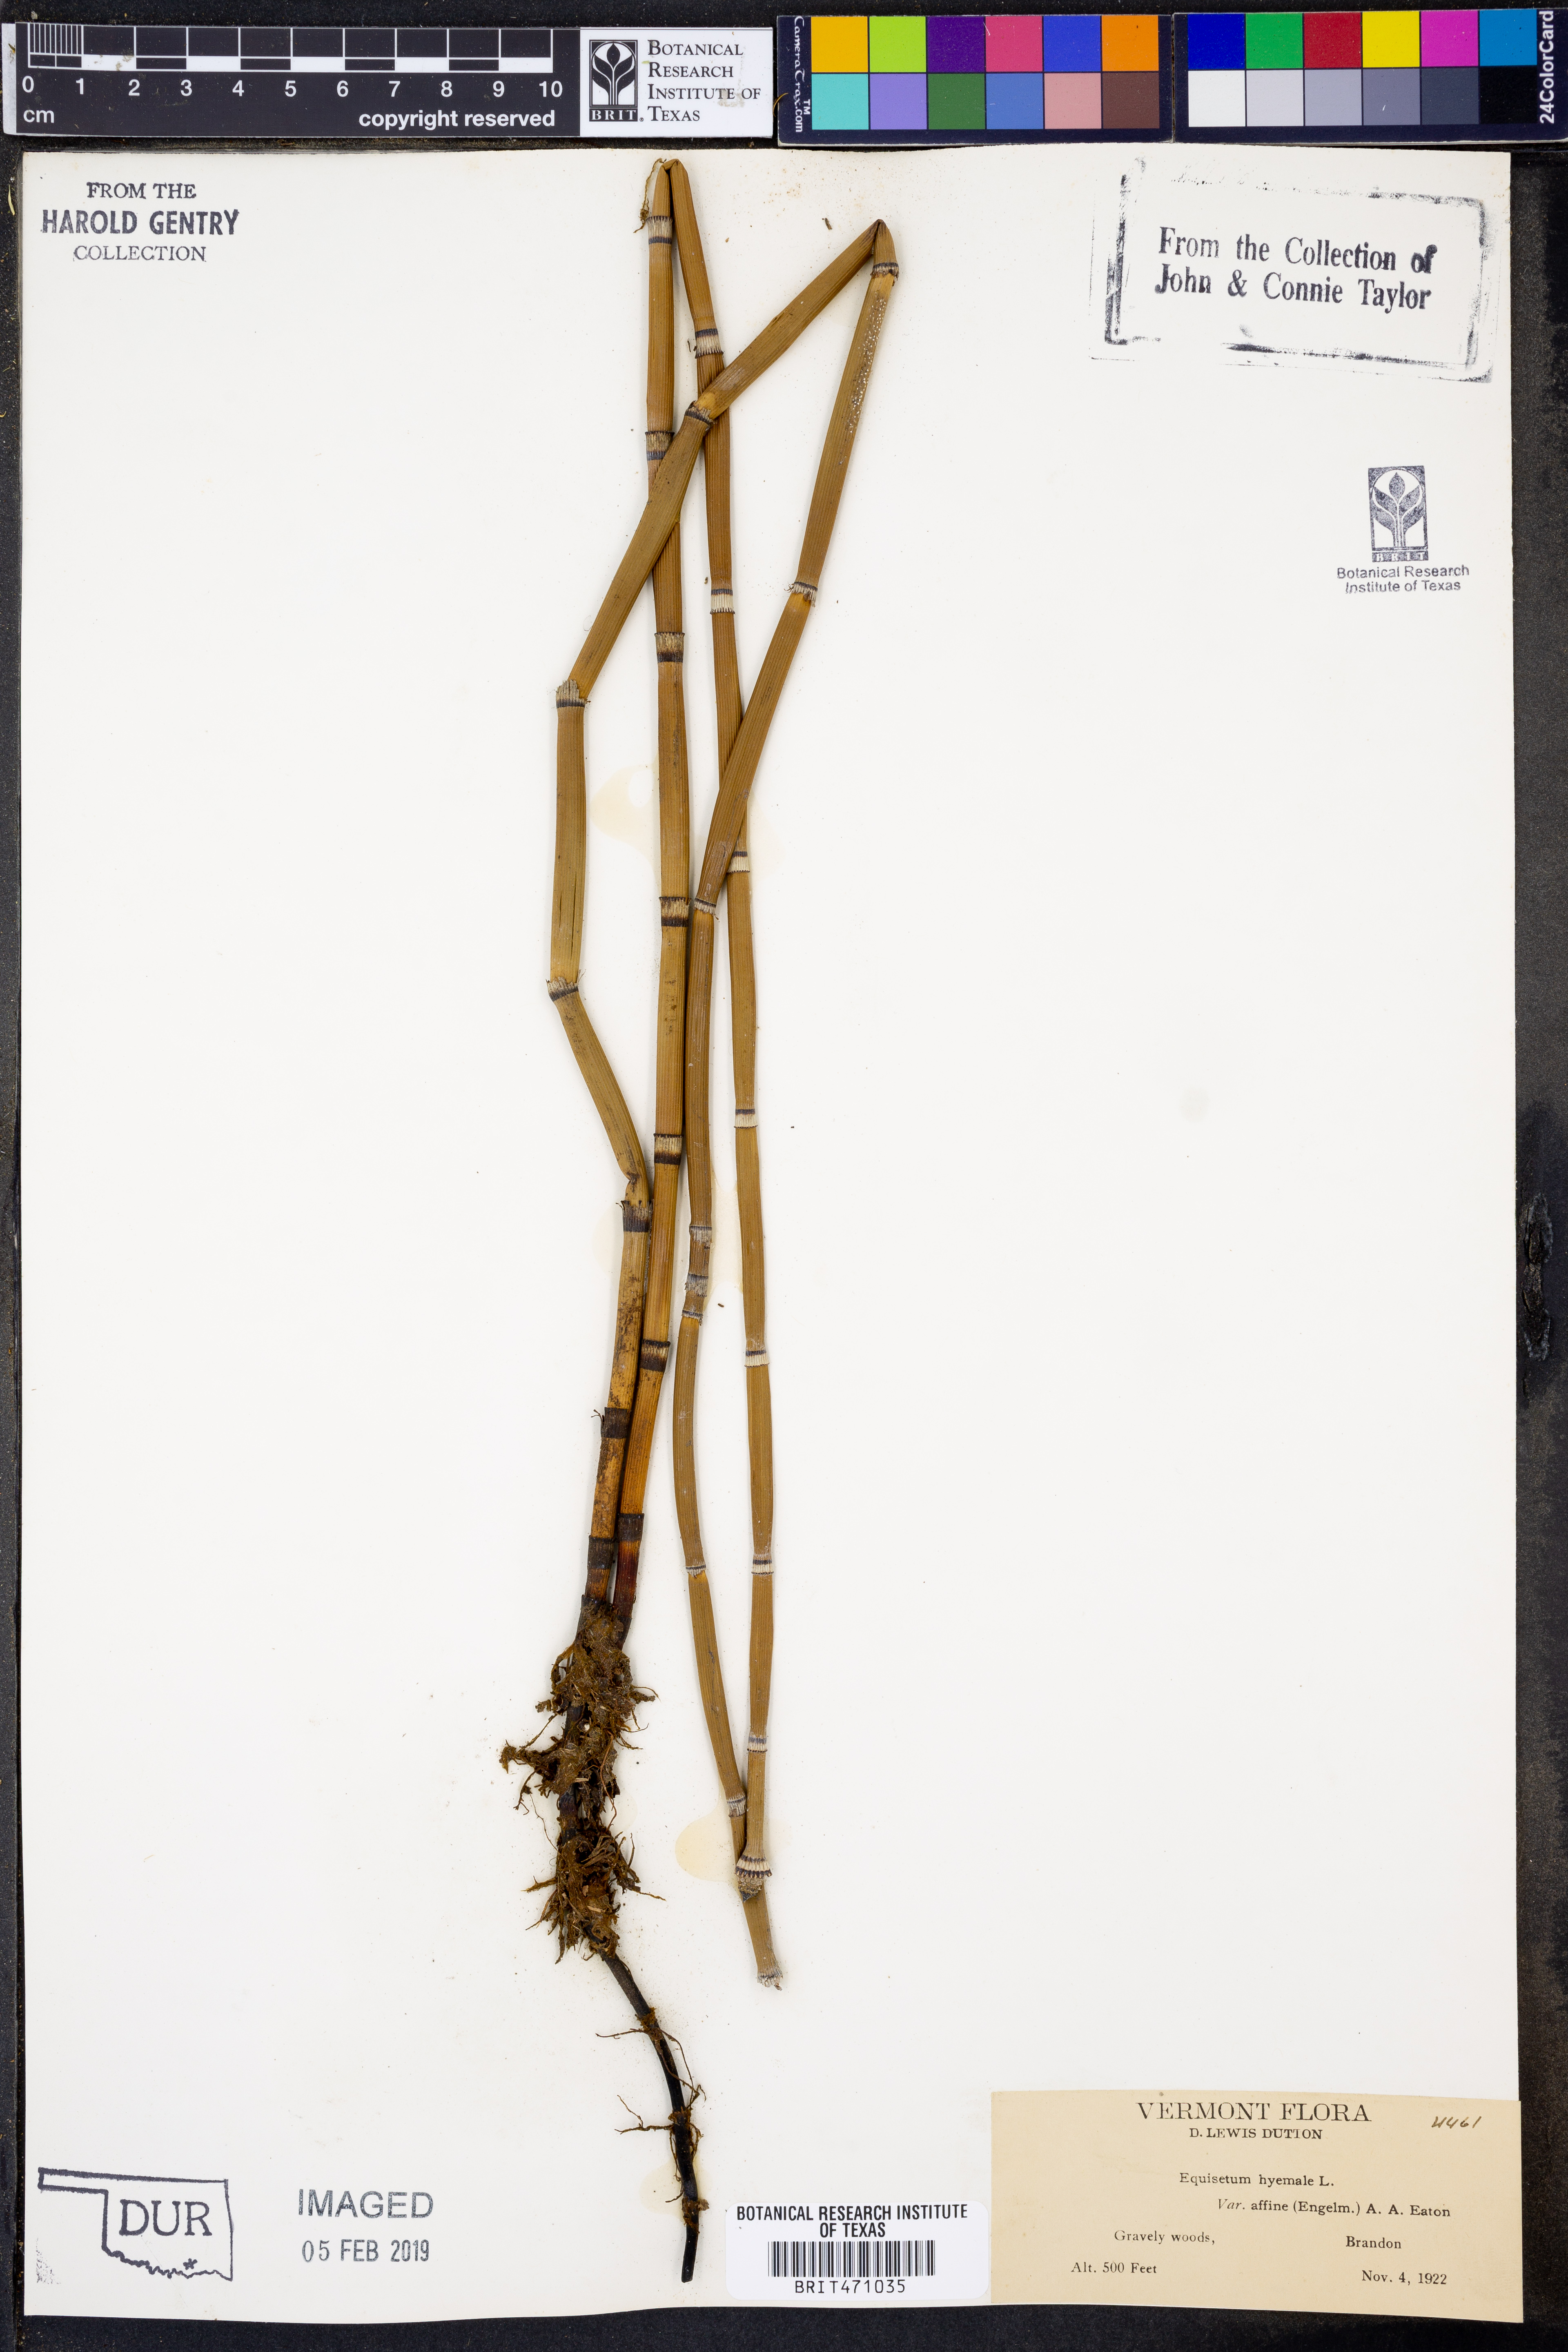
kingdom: Plantae
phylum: Tracheophyta
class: Polypodiopsida
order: Equisetales
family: Equisetaceae
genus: Equisetum
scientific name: Equisetum praealtum
